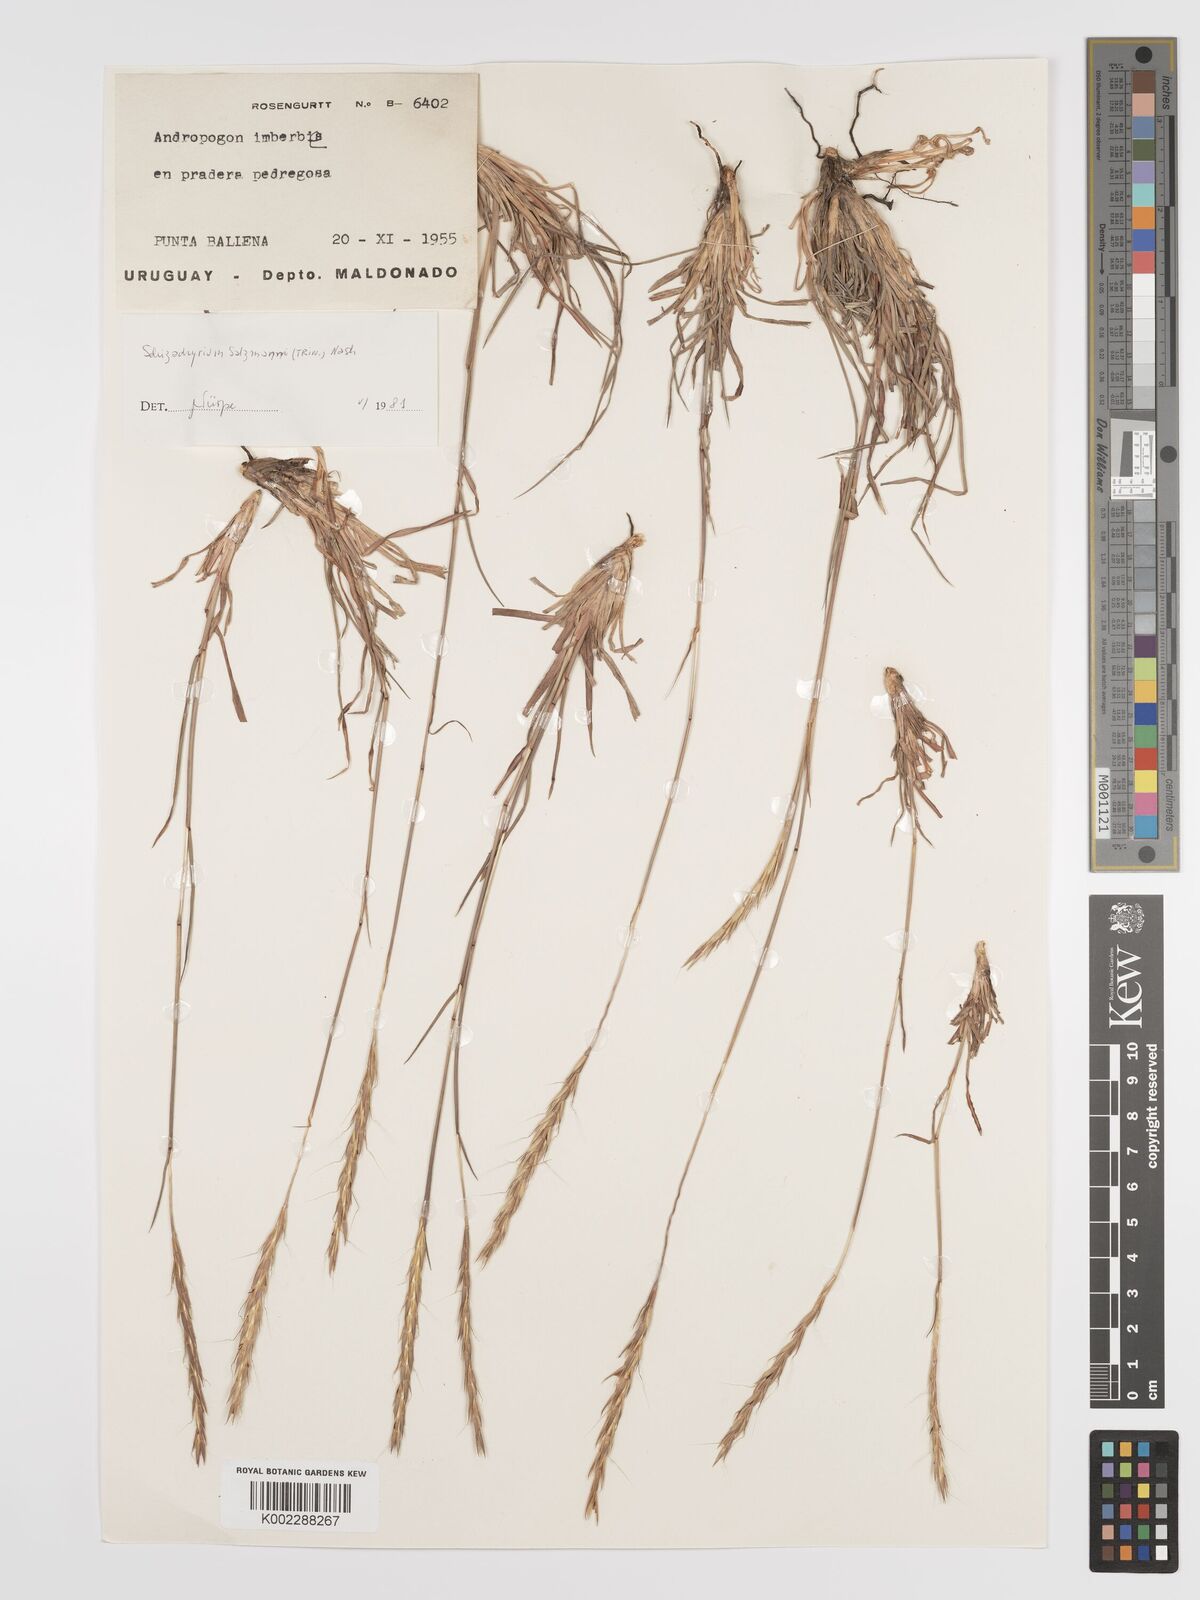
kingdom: Plantae
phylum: Tracheophyta
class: Liliopsida
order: Poales
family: Poaceae
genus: Andropogon
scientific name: Andropogon salzmannii
